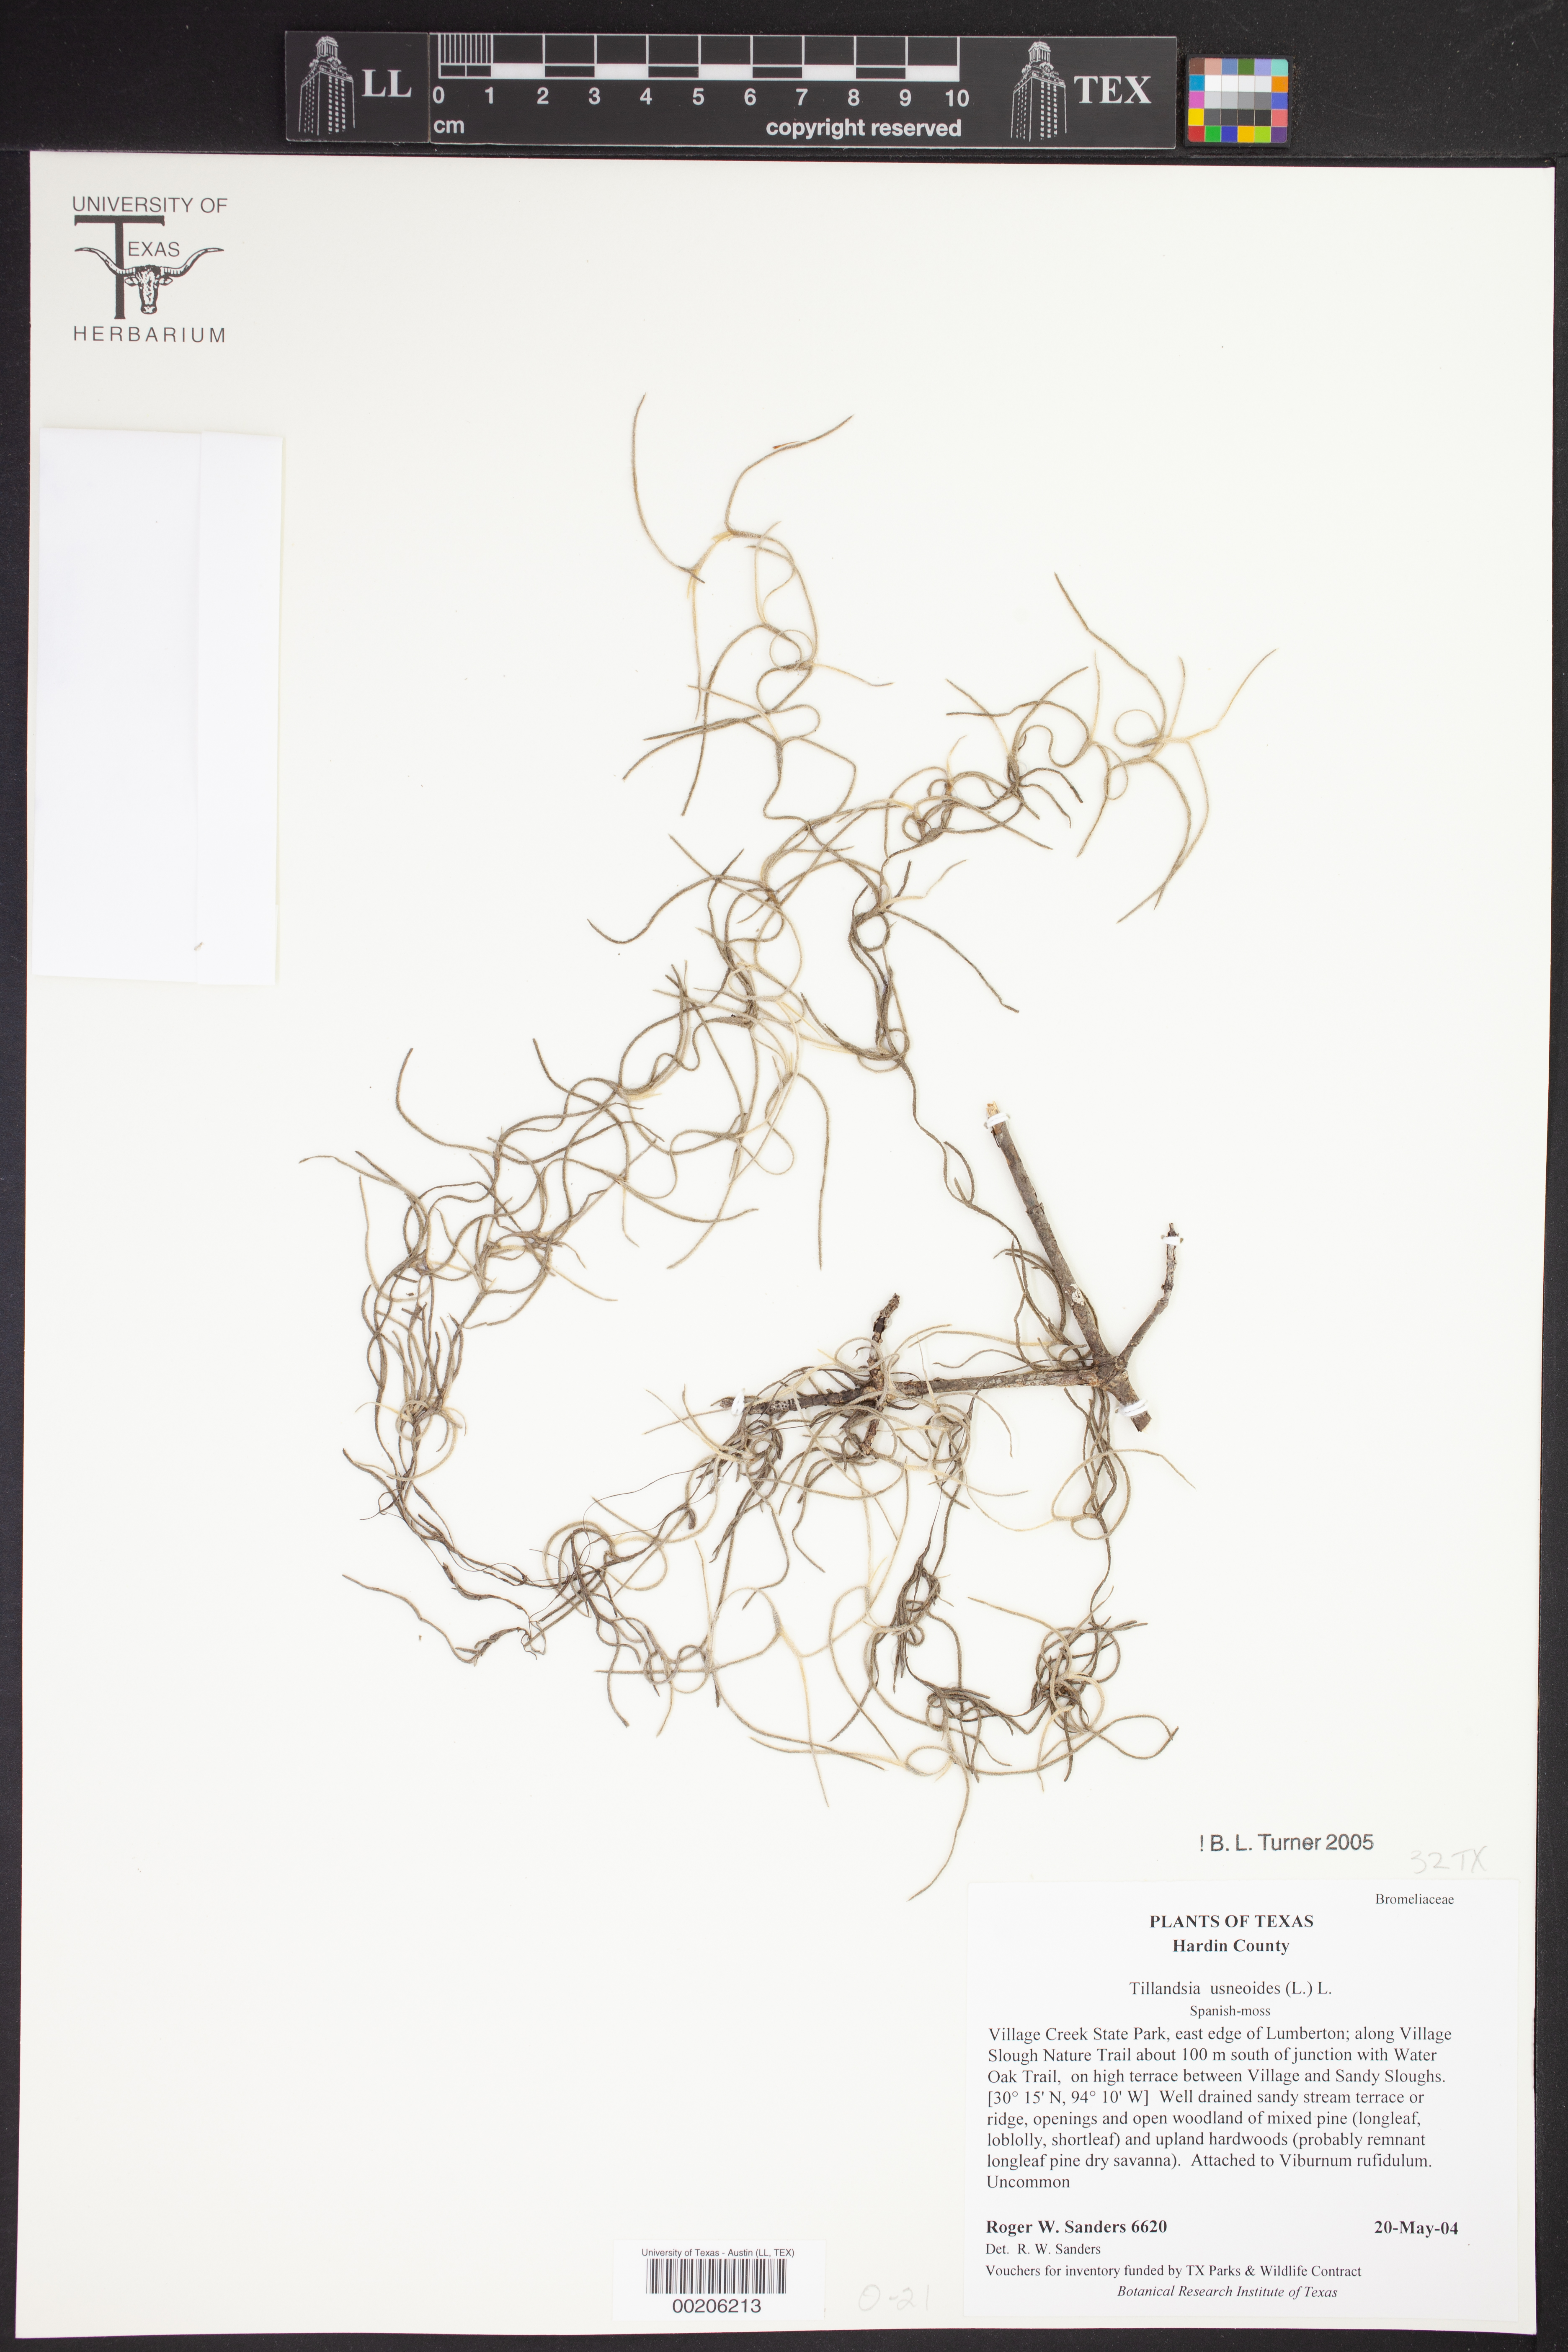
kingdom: Plantae
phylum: Tracheophyta
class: Liliopsida
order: Poales
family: Bromeliaceae
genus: Tillandsia
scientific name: Tillandsia usneoides
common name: Spanish moss
